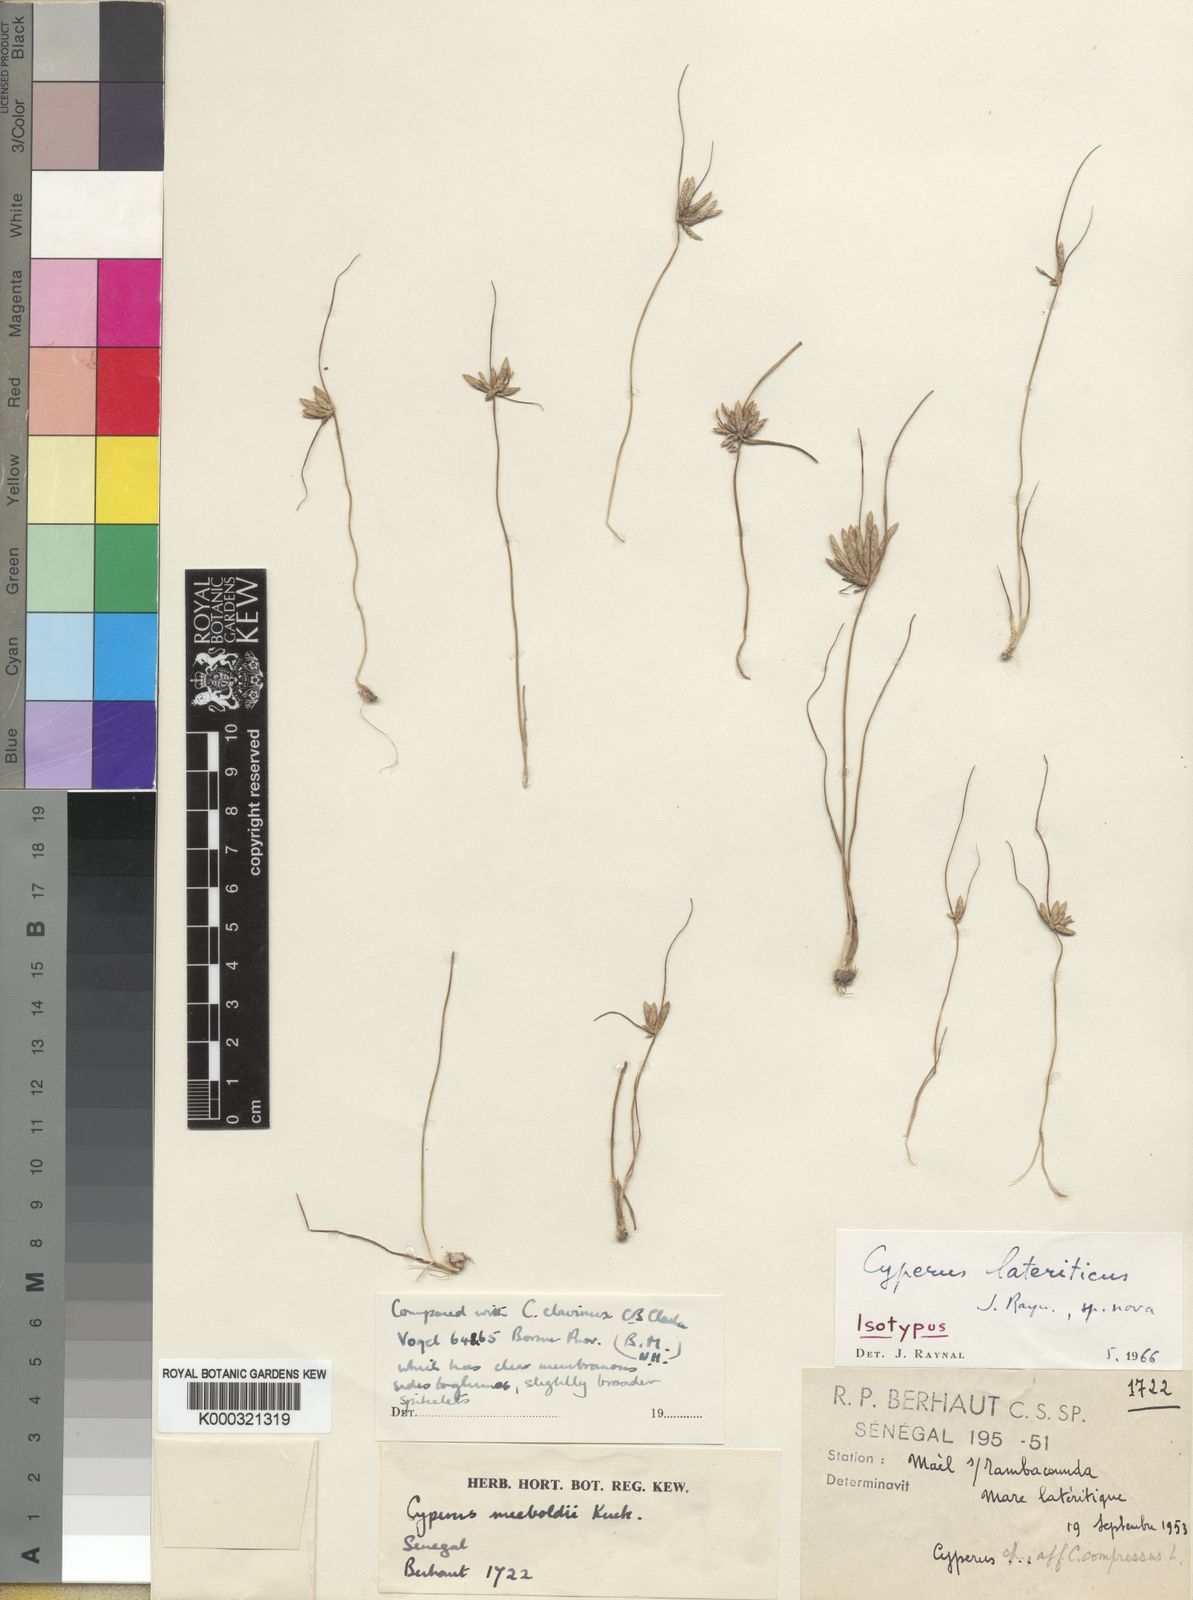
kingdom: Plantae
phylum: Tracheophyta
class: Liliopsida
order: Poales
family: Cyperaceae
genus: Cyperus
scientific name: Cyperus lateriticus
